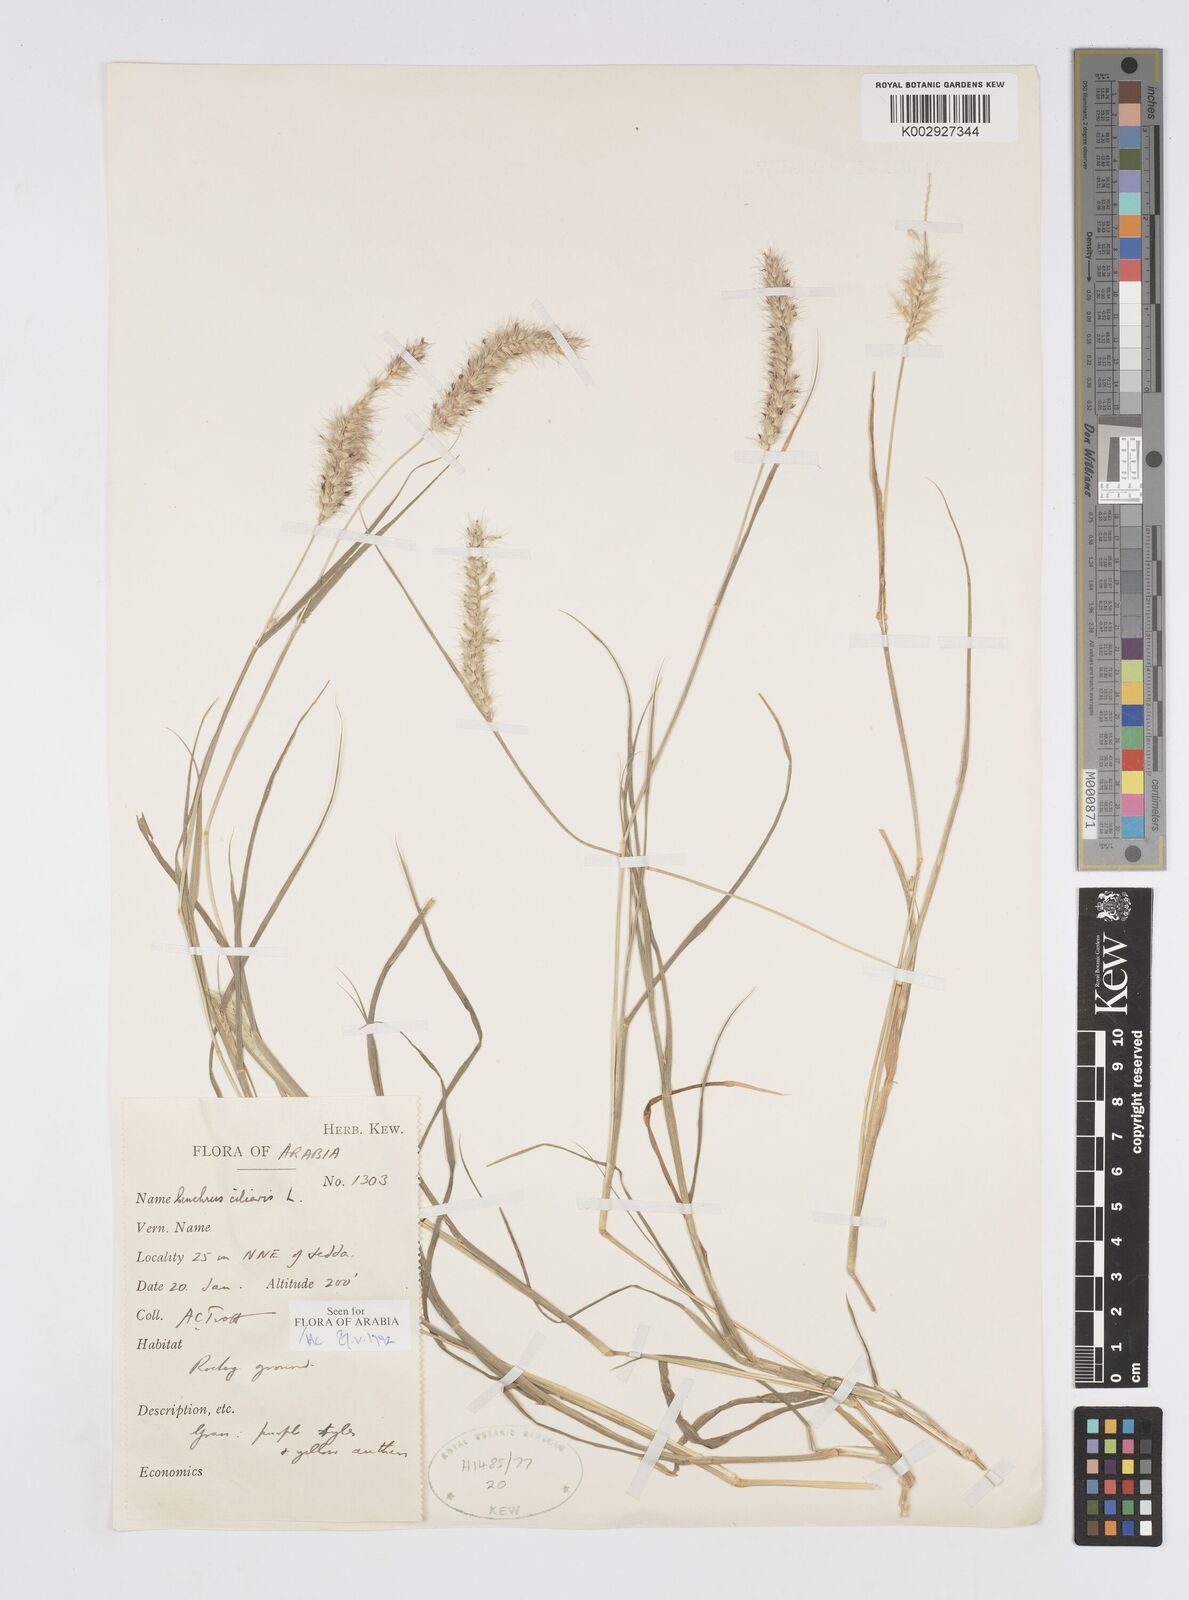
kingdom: Plantae
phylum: Tracheophyta
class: Liliopsida
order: Poales
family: Poaceae
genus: Cenchrus
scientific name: Cenchrus ciliaris
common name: Buffelgrass
